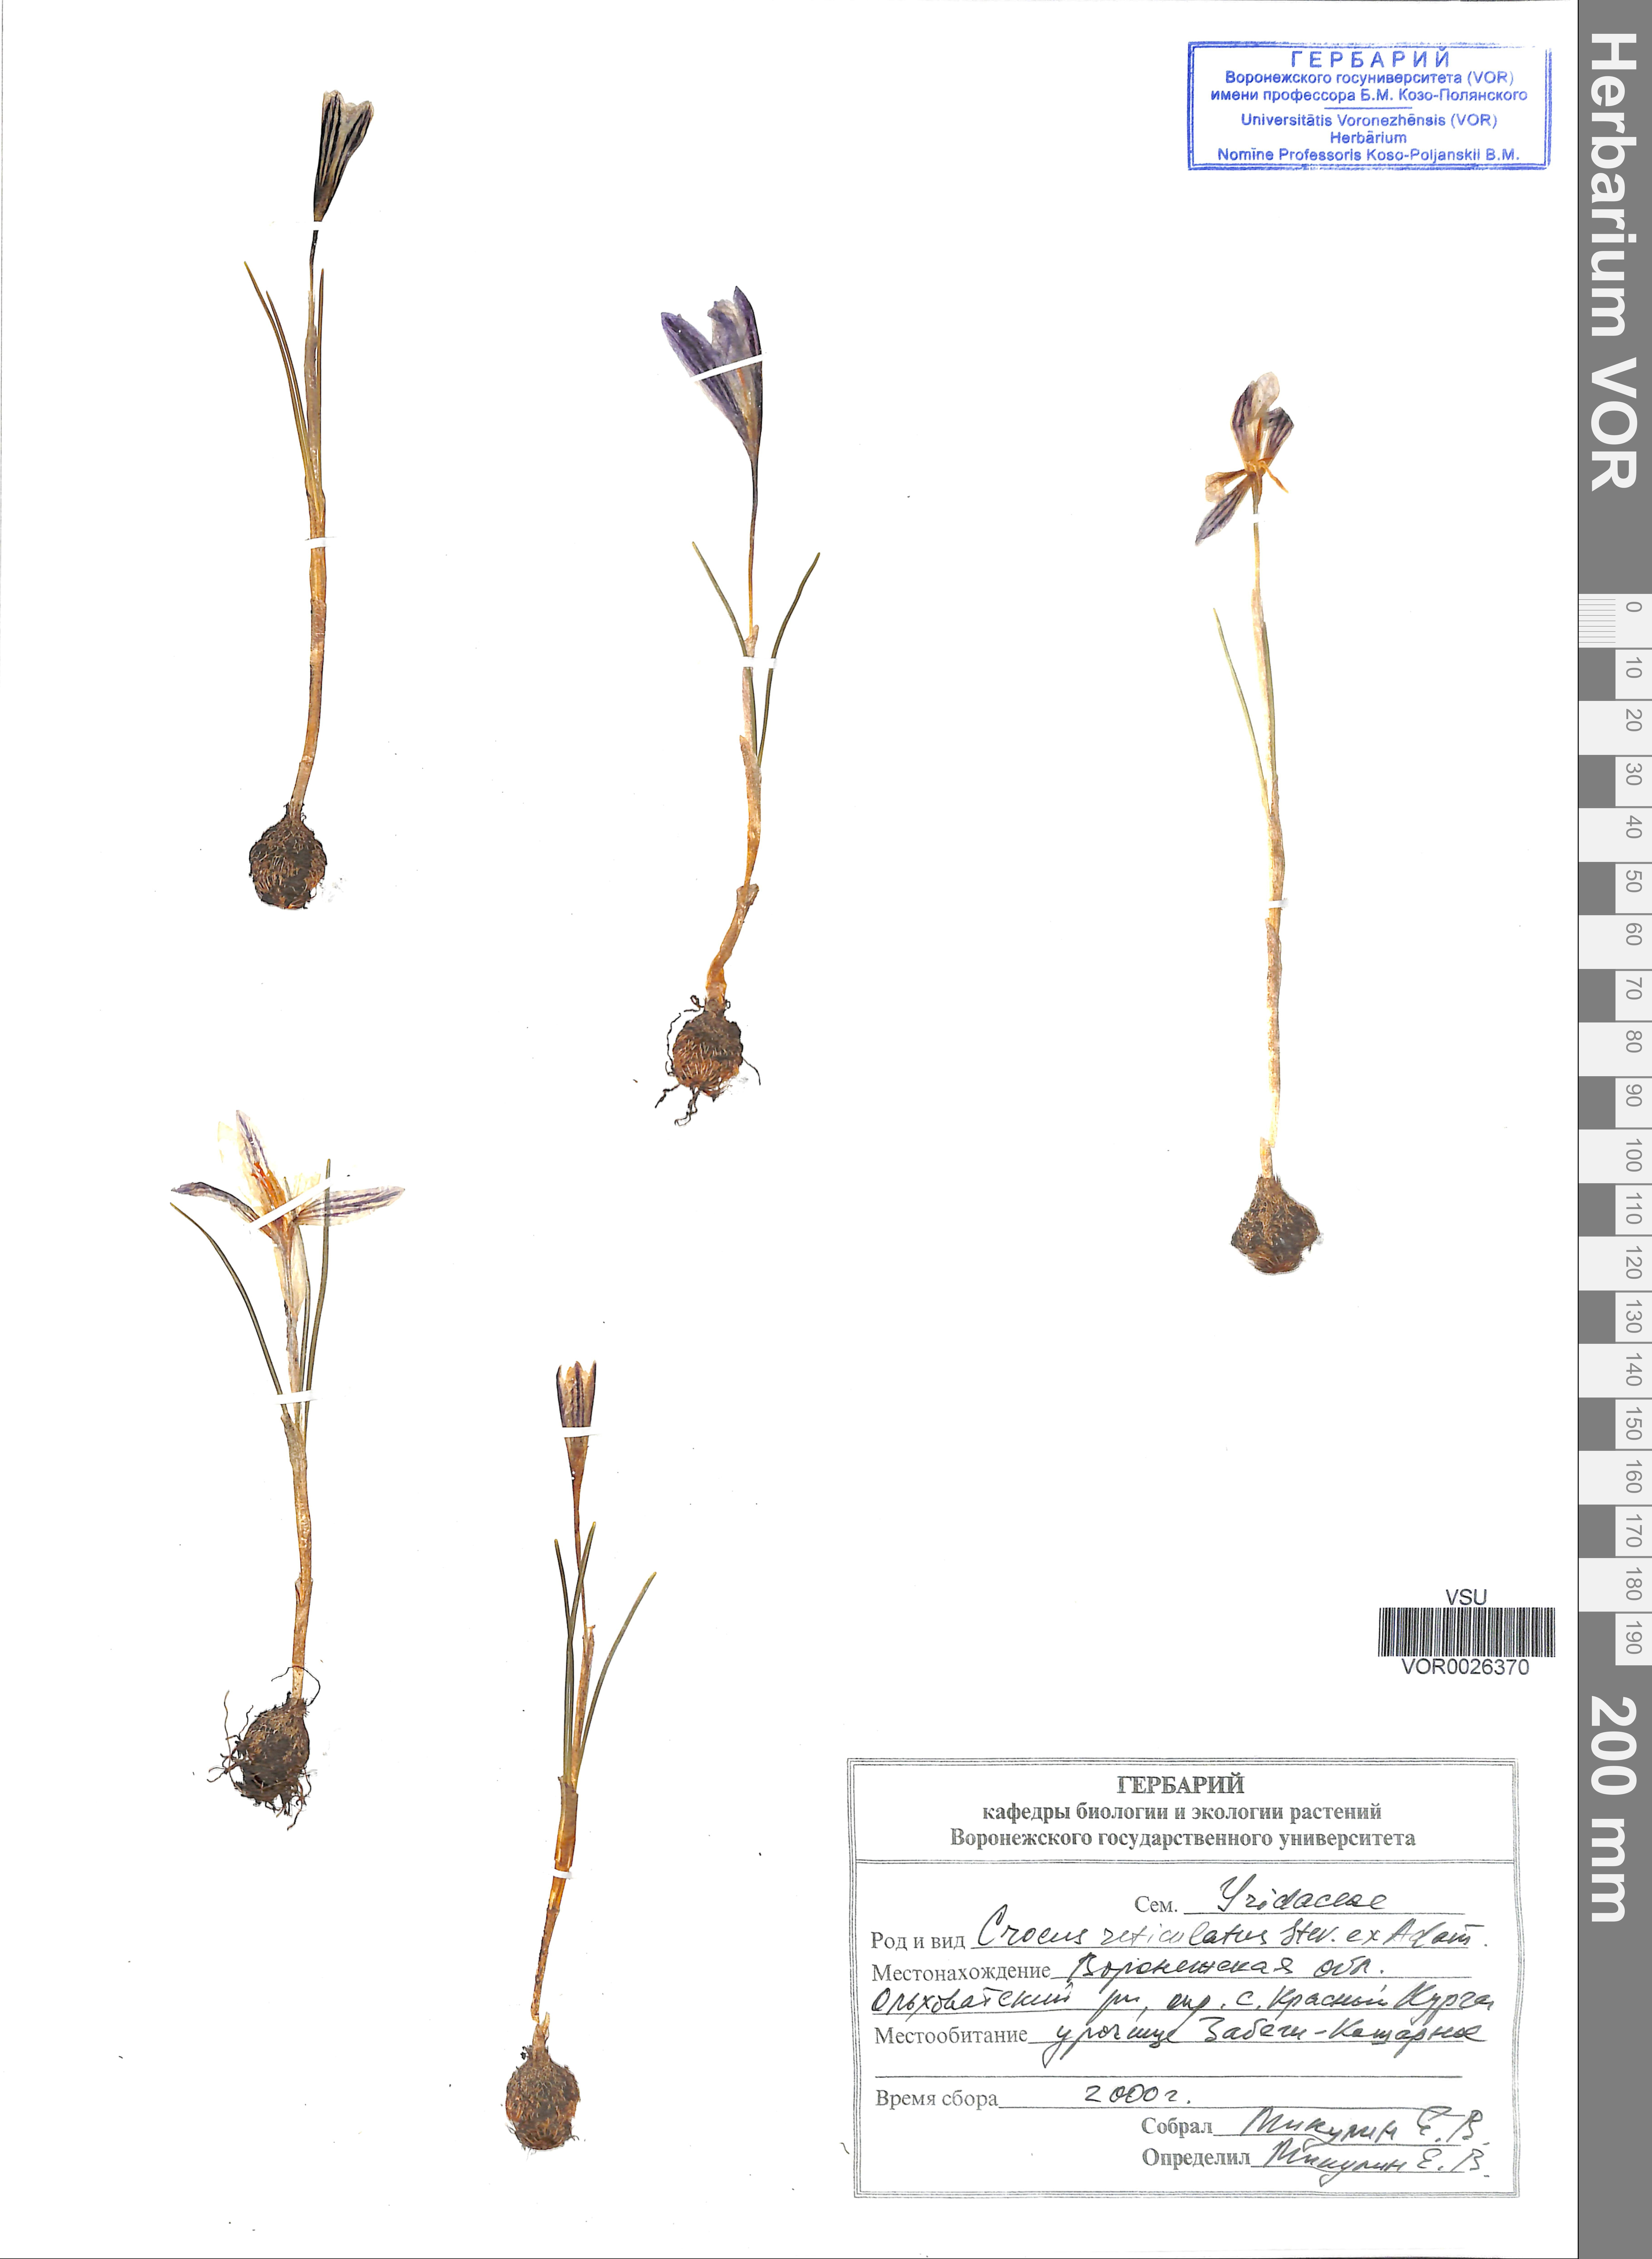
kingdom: Plantae
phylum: Tracheophyta
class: Liliopsida
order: Asparagales
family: Iridaceae
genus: Crocus
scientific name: Crocus reticulatus
